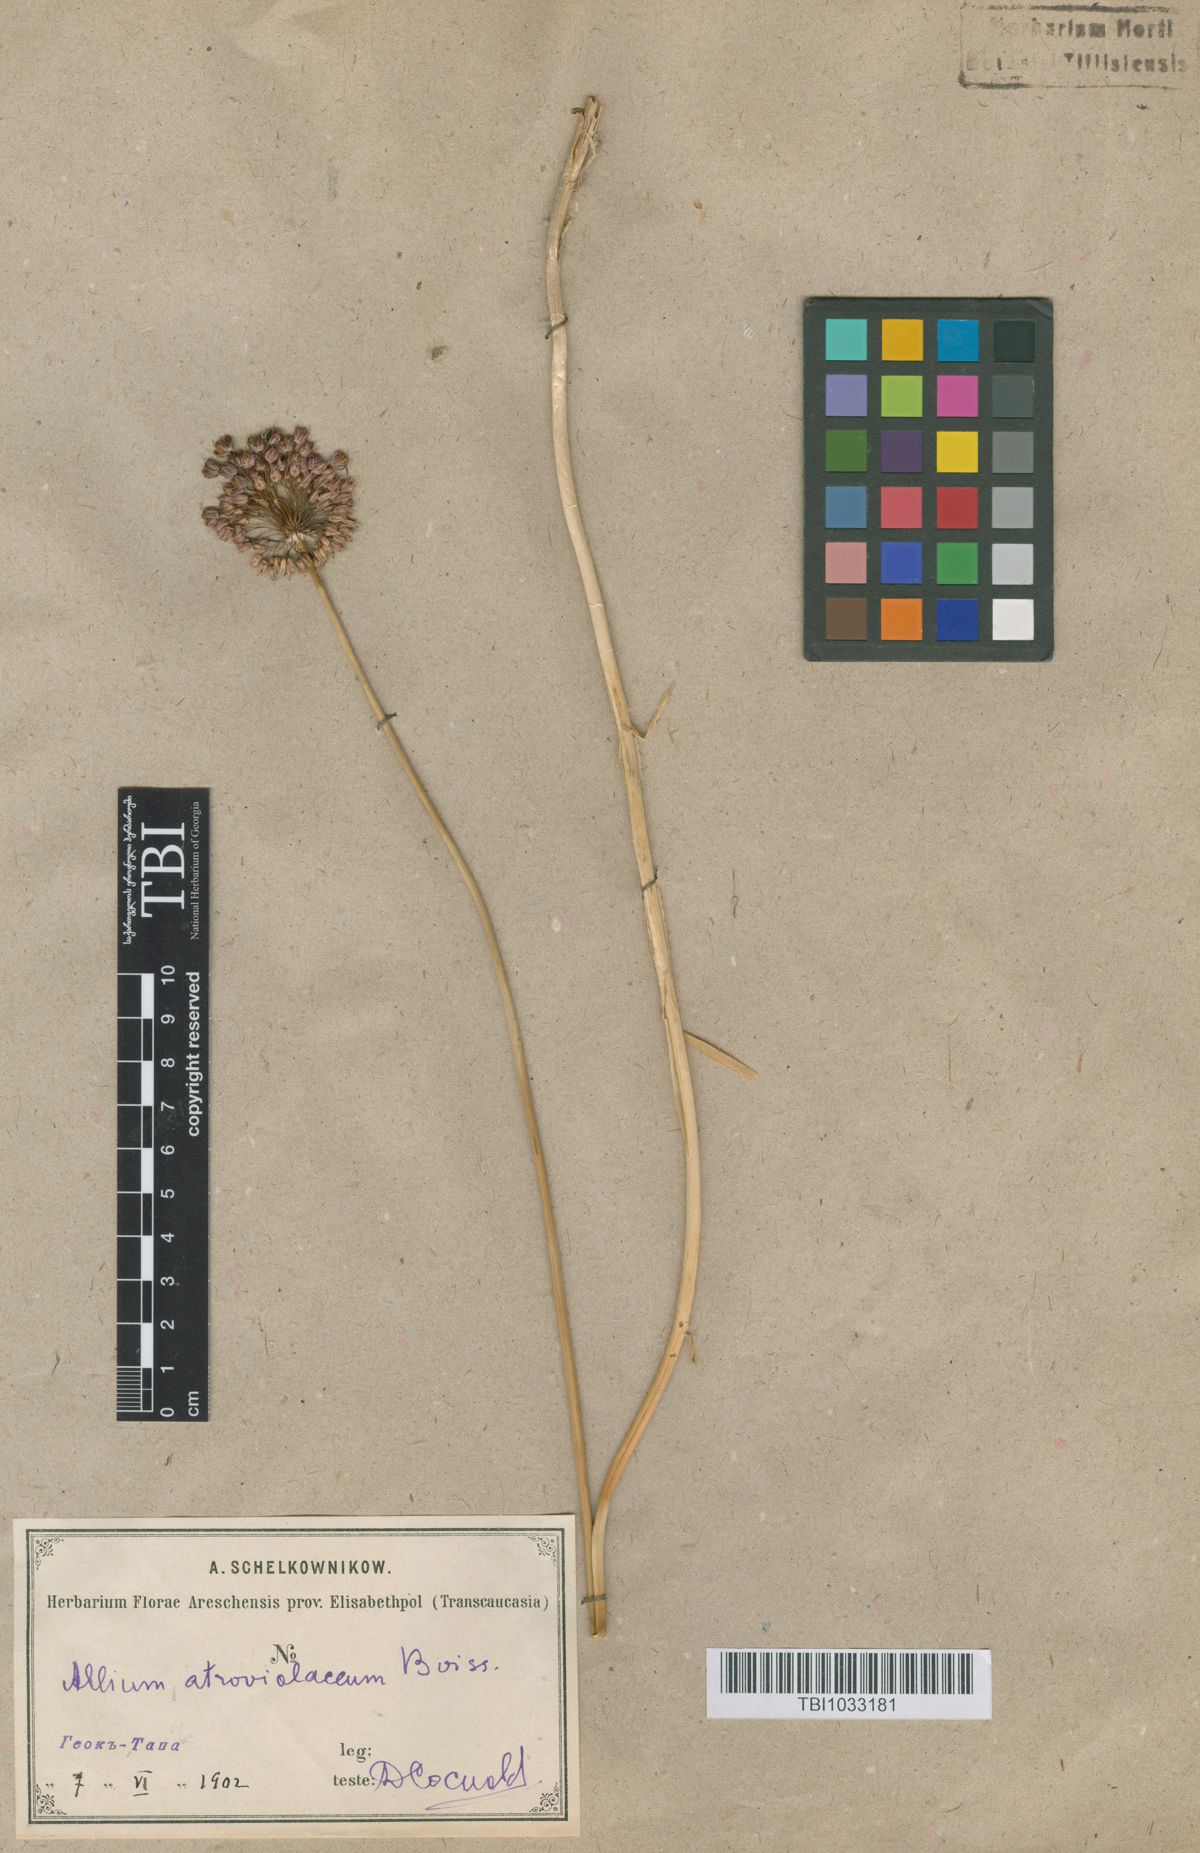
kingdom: Plantae
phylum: Tracheophyta
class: Liliopsida
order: Asparagales
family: Amaryllidaceae
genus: Allium
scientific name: Allium atroviolaceum
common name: Broadleaf wild leek
